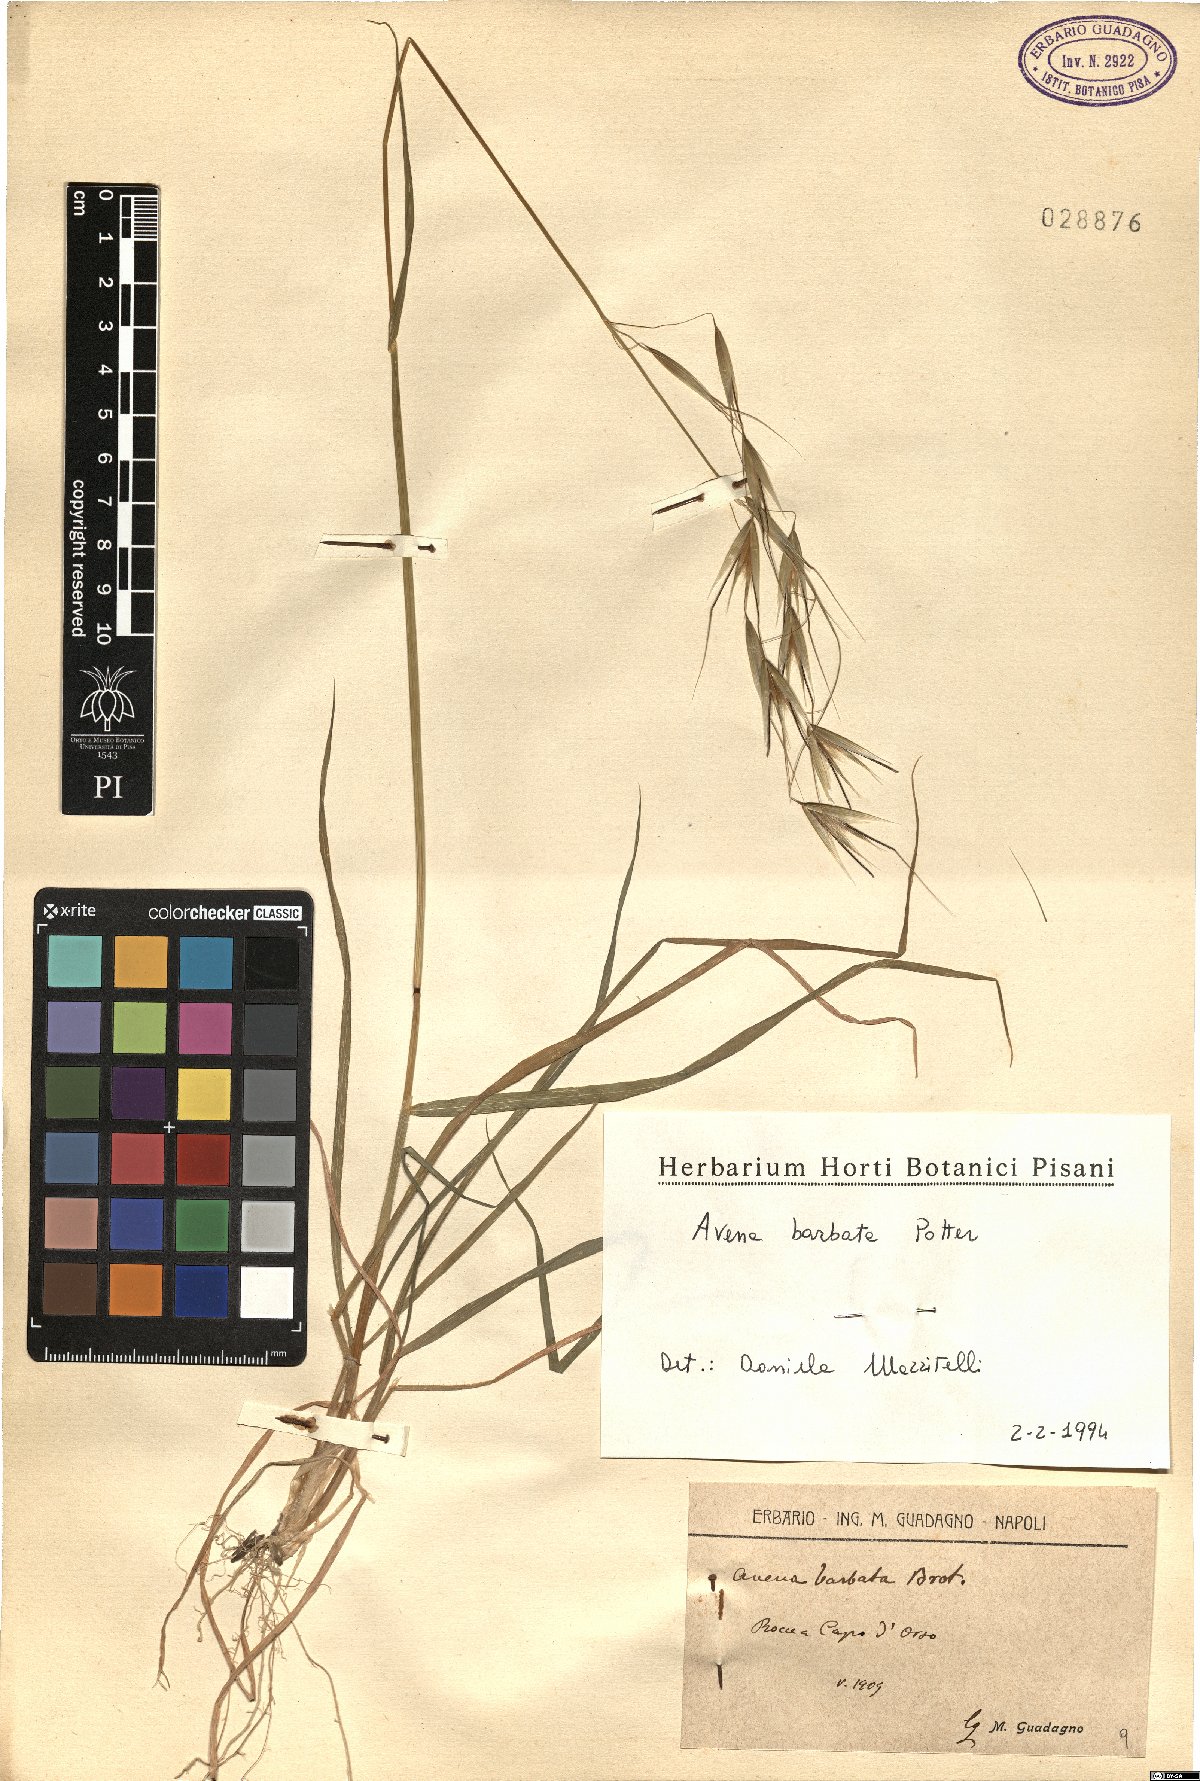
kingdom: Plantae
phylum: Tracheophyta
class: Liliopsida
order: Poales
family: Poaceae
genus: Avena
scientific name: Avena barbata
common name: Slender oat
